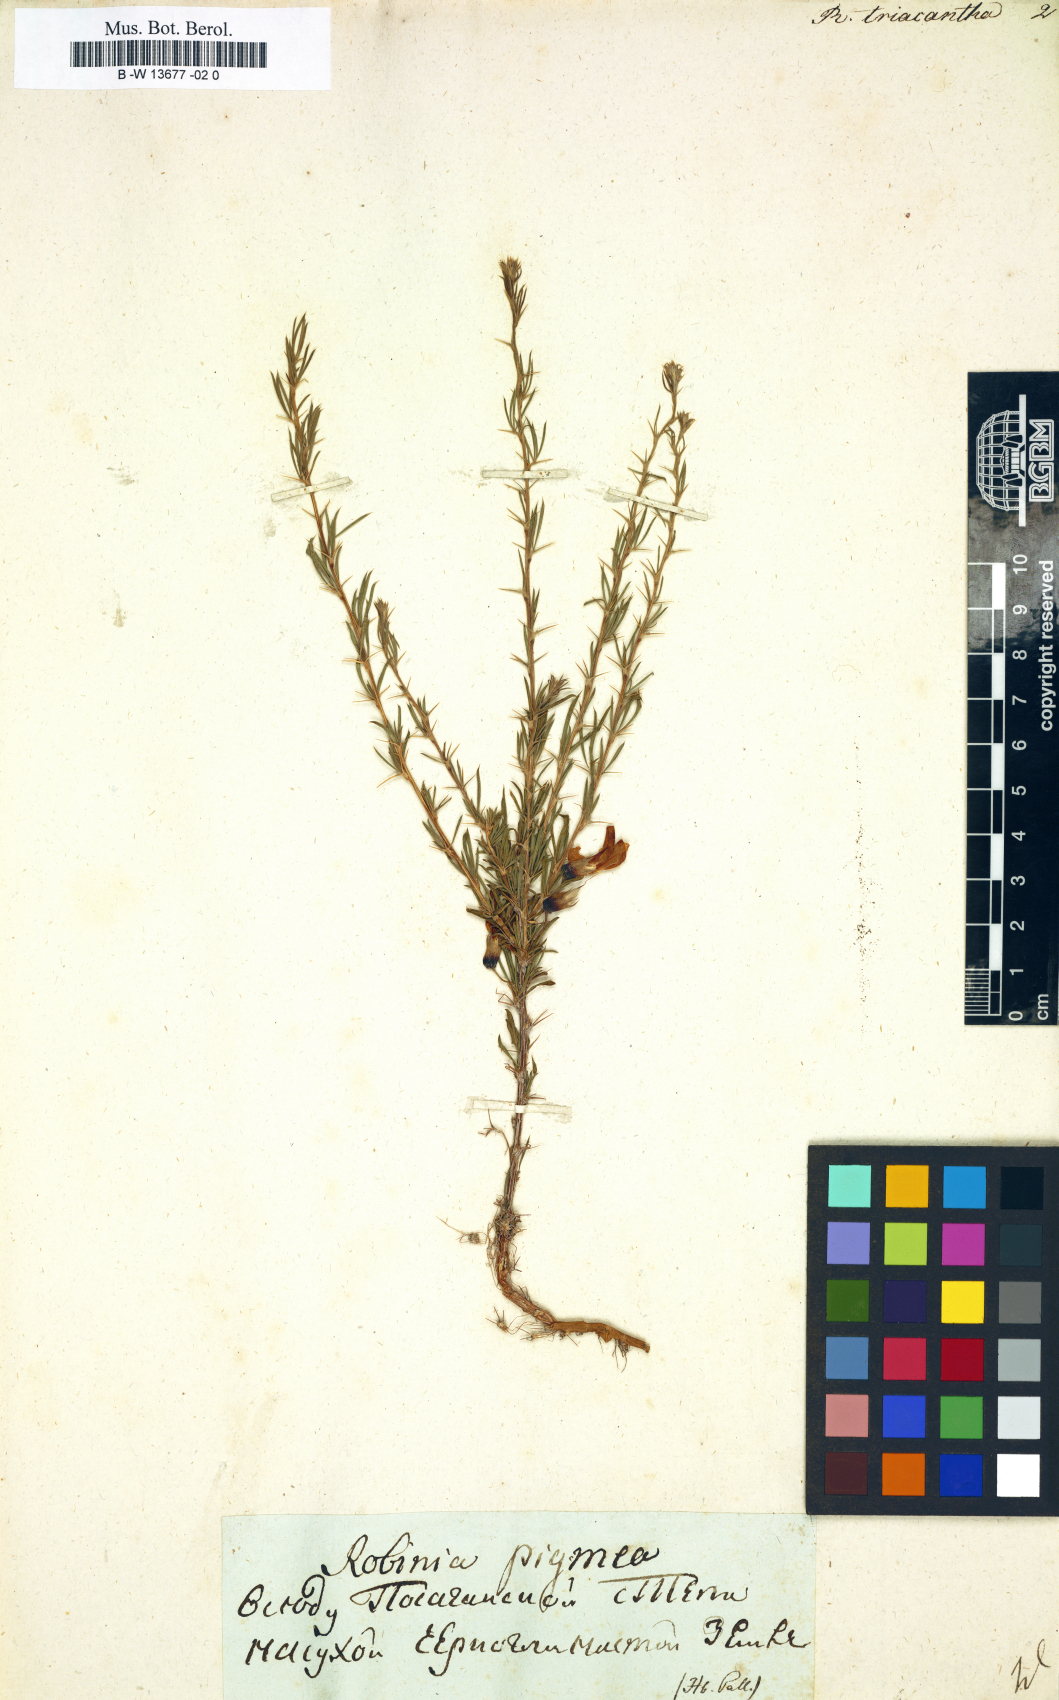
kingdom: Plantae
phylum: Tracheophyta
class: Magnoliopsida
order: Fabales
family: Fabaceae
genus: Robinia
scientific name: Robinia
